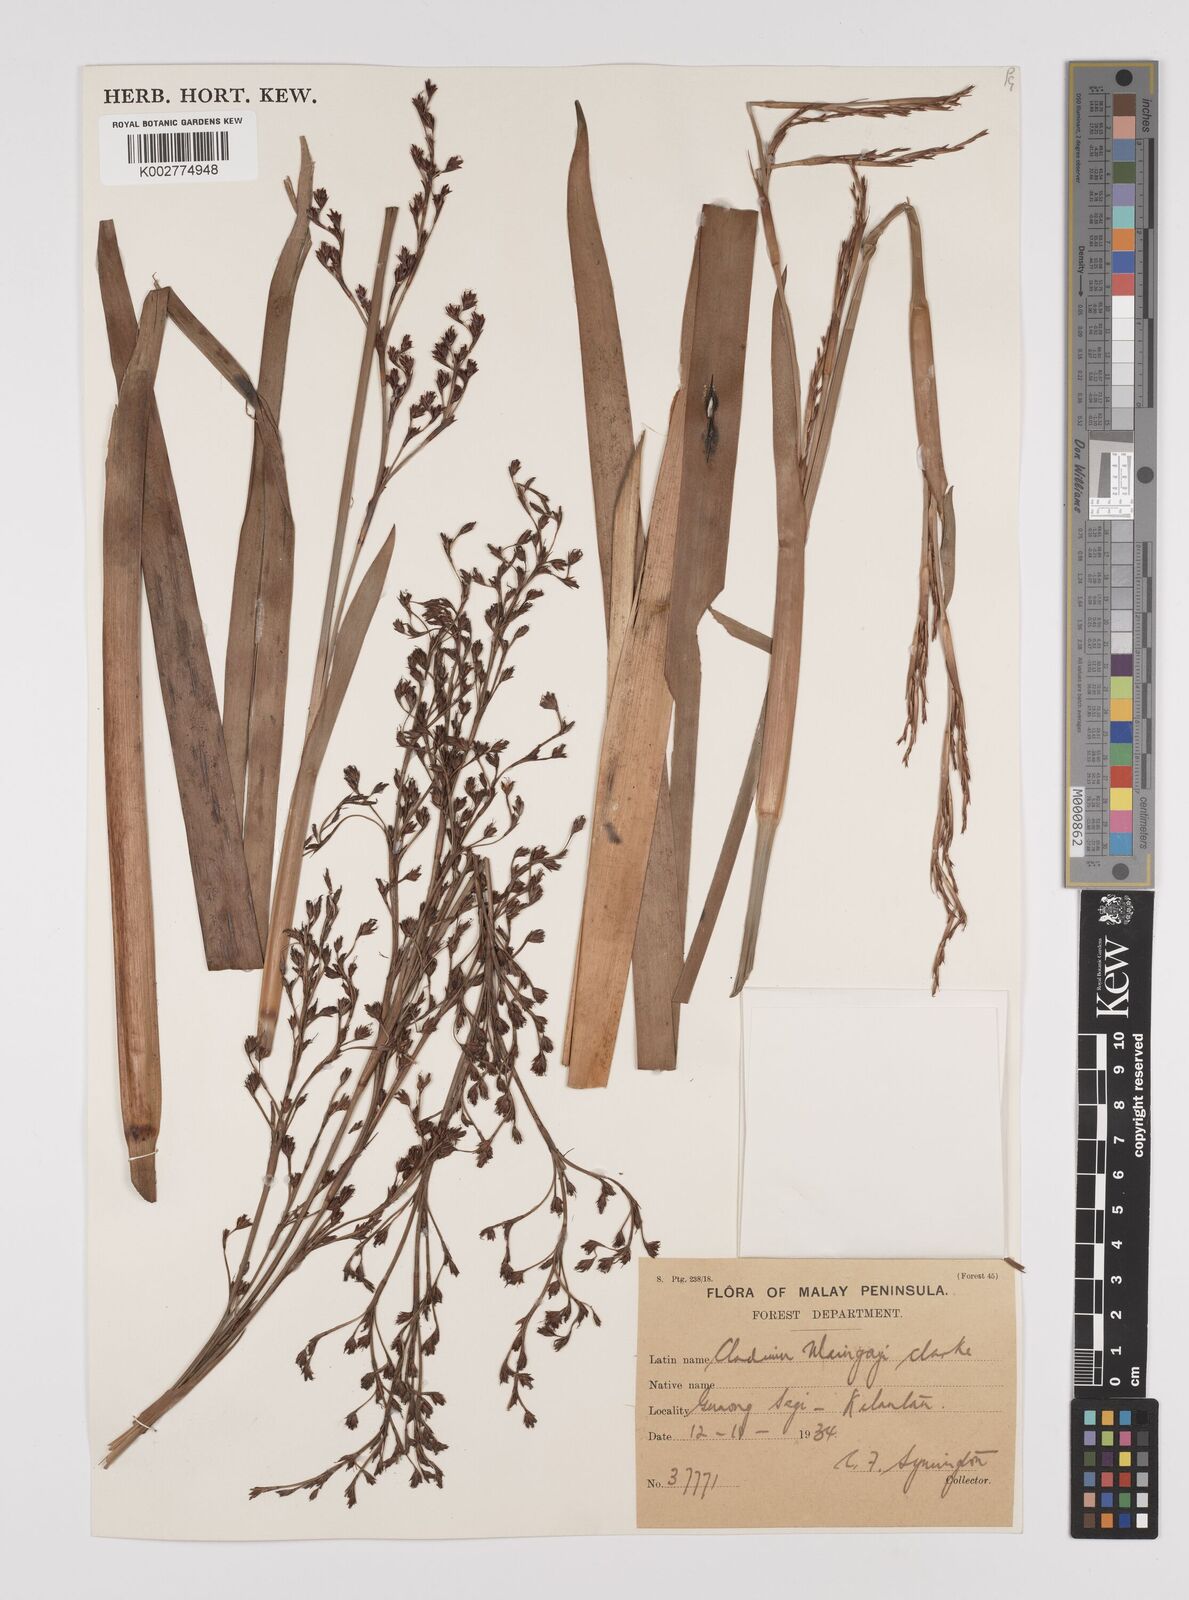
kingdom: Plantae
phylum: Tracheophyta
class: Liliopsida
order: Poales
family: Cyperaceae
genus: Machaerina
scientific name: Machaerina maingayi
